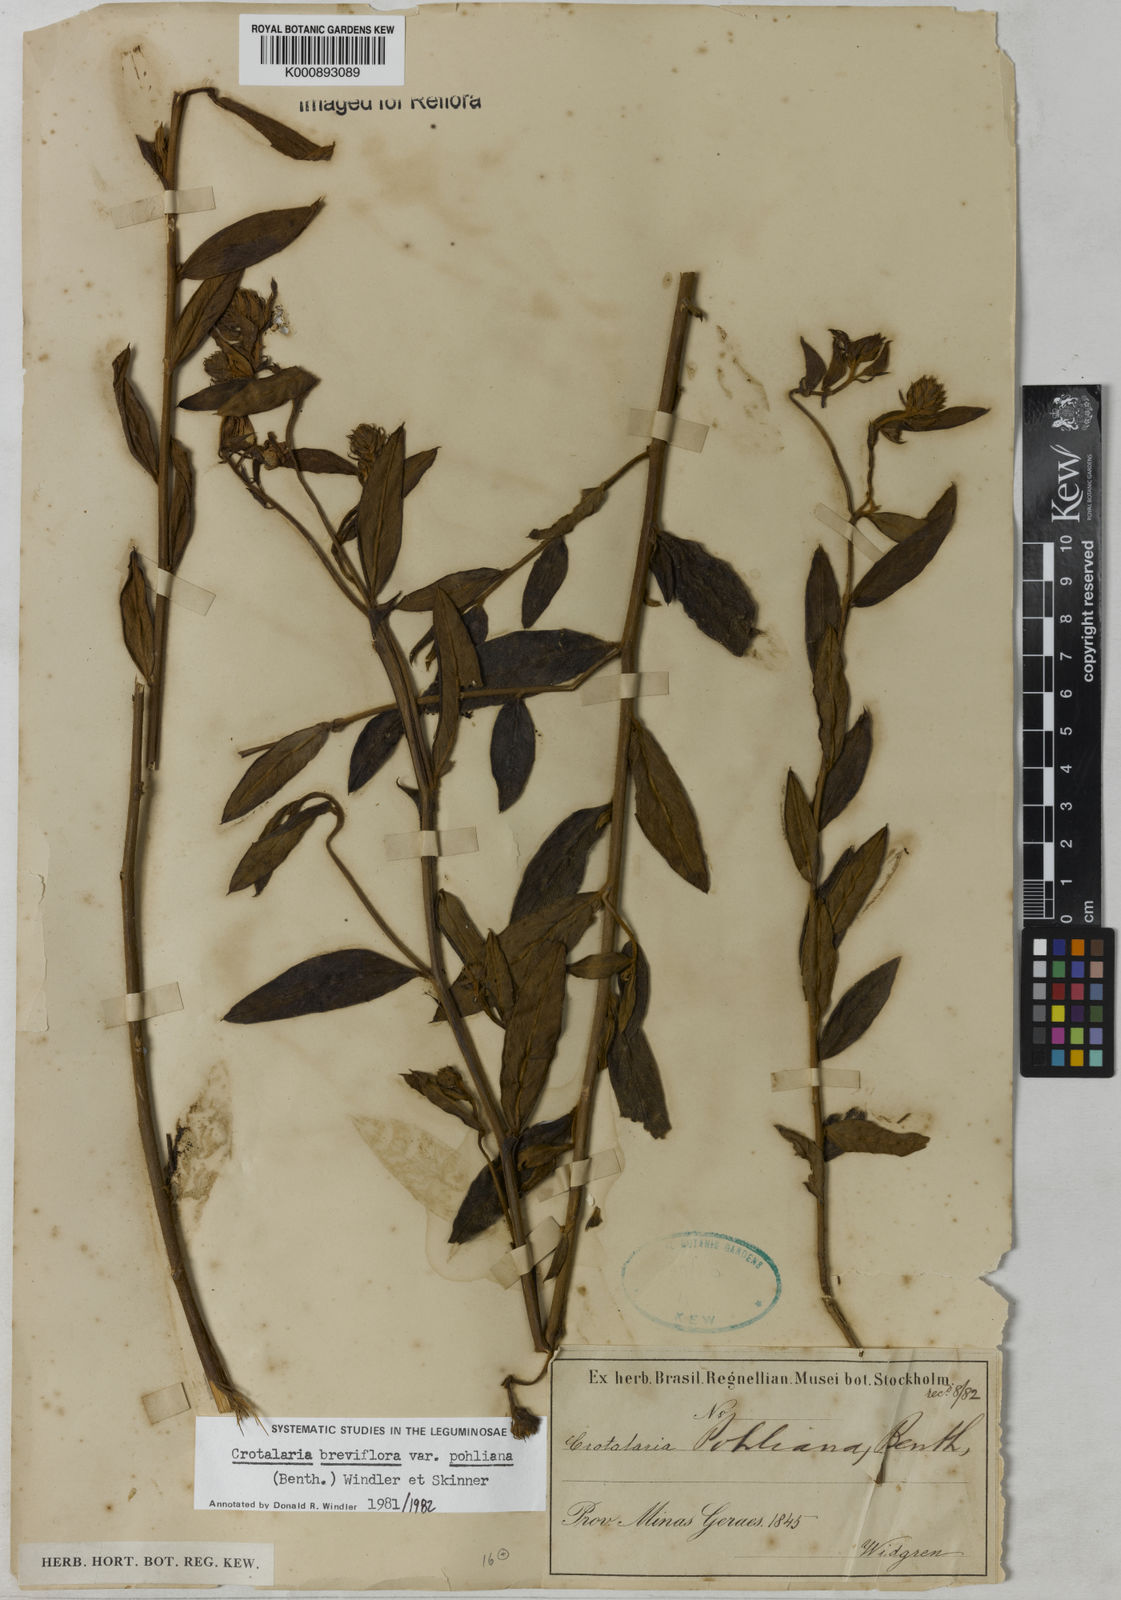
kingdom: Plantae
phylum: Tracheophyta
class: Magnoliopsida
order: Fabales
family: Fabaceae
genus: Crotalaria
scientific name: Crotalaria subdecurrens
